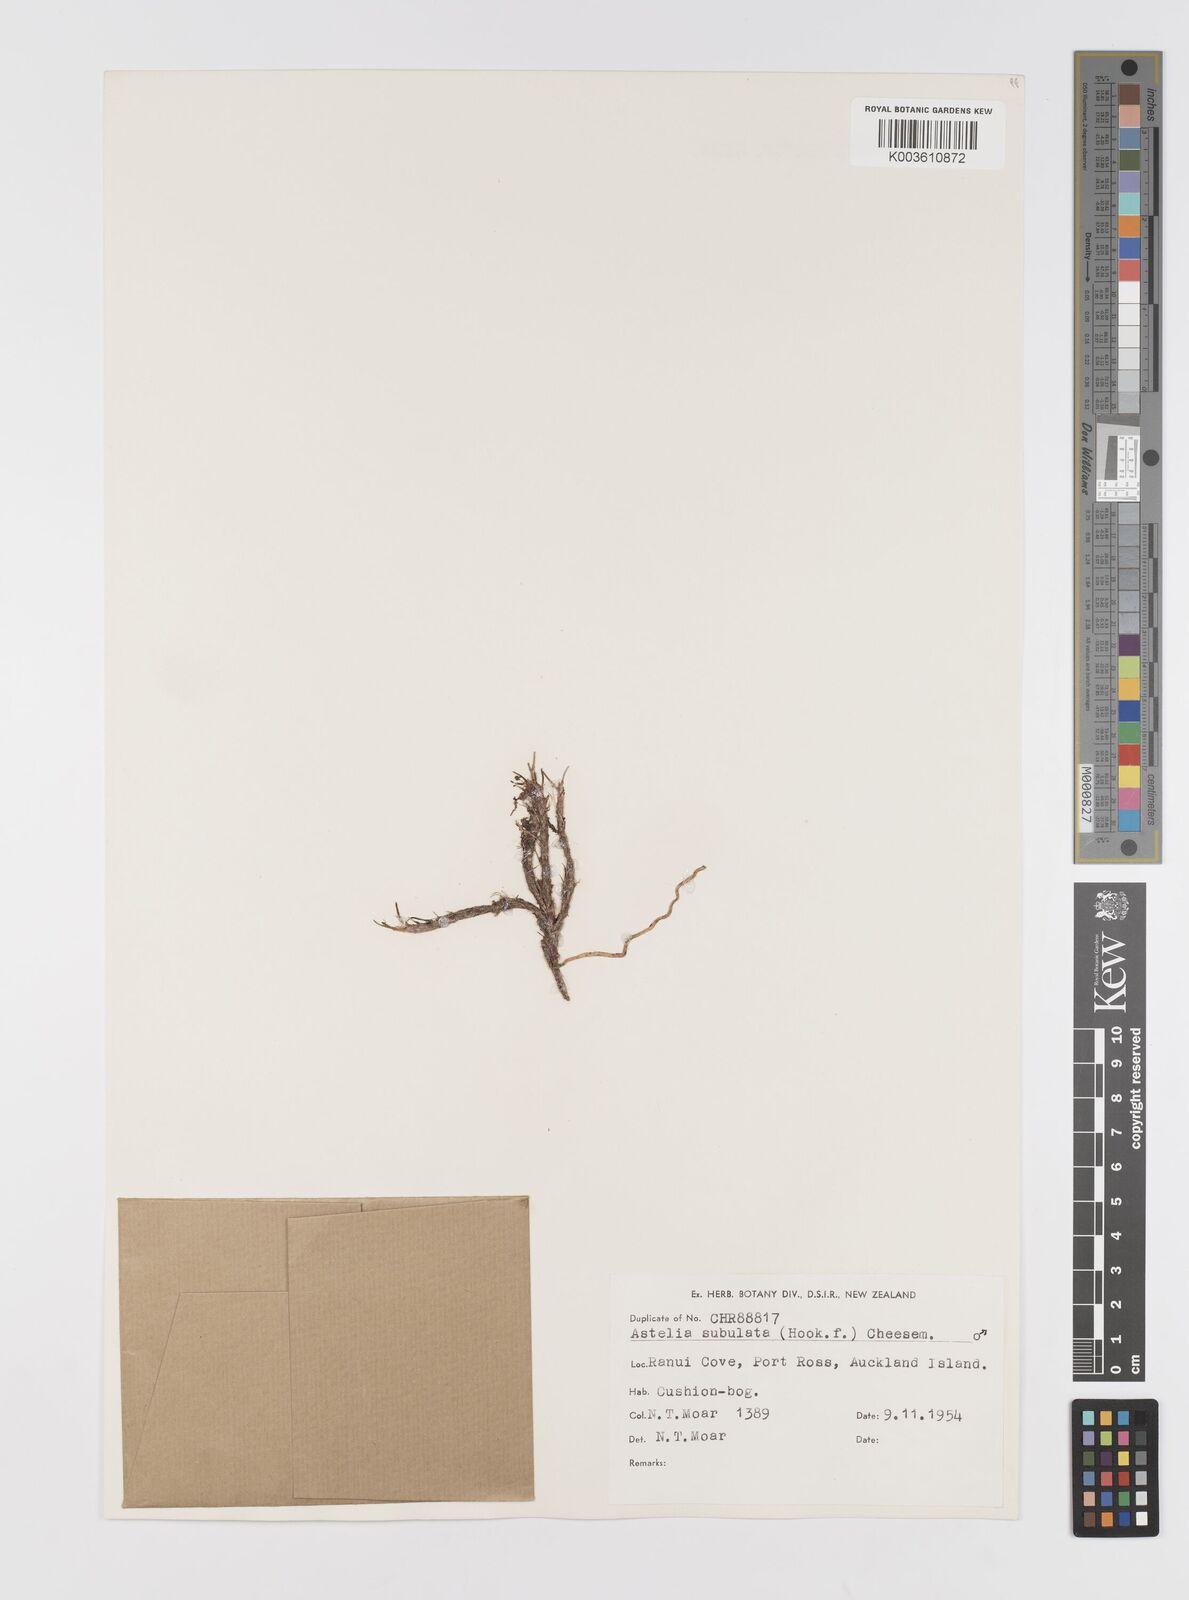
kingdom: Plantae
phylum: Tracheophyta
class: Liliopsida
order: Asparagales
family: Asteliaceae
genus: Astelia
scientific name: Astelia subulata
